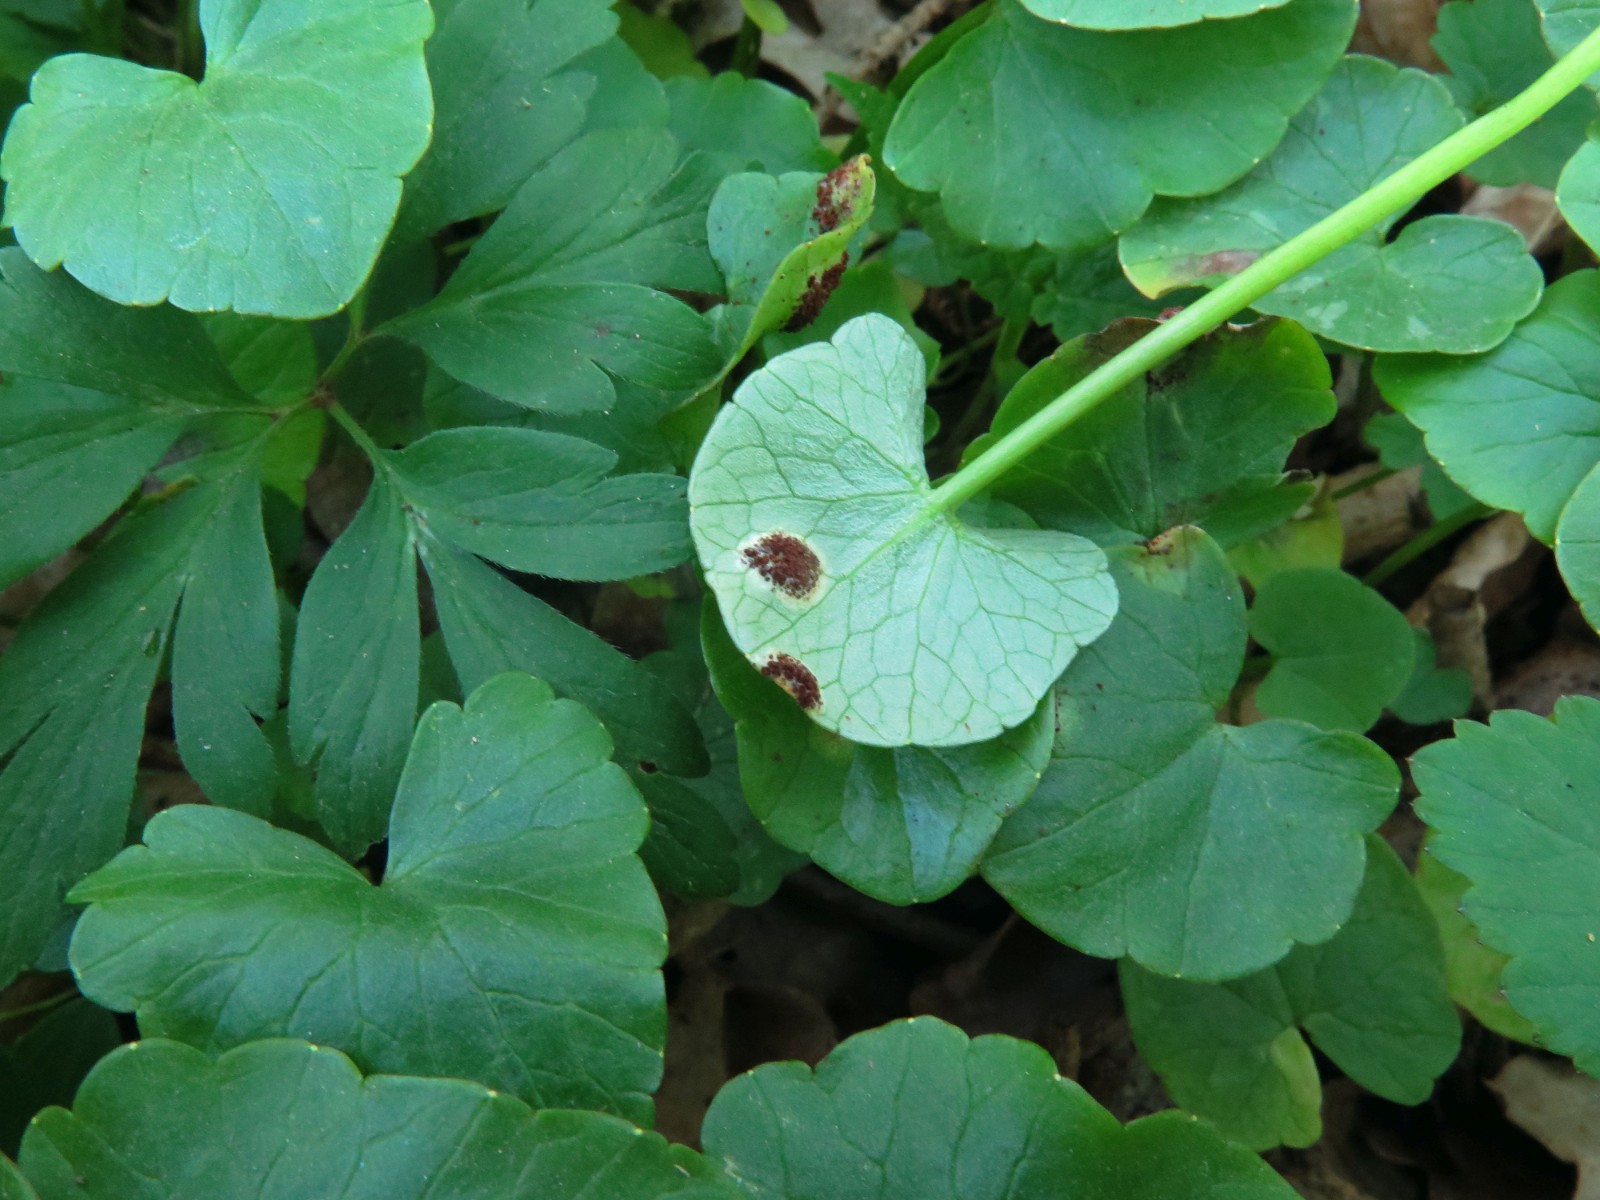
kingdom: Fungi
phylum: Basidiomycota
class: Pucciniomycetes
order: Pucciniales
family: Pucciniaceae
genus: Uromyces
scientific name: Uromyces ficariae
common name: vorterod-encellerust
